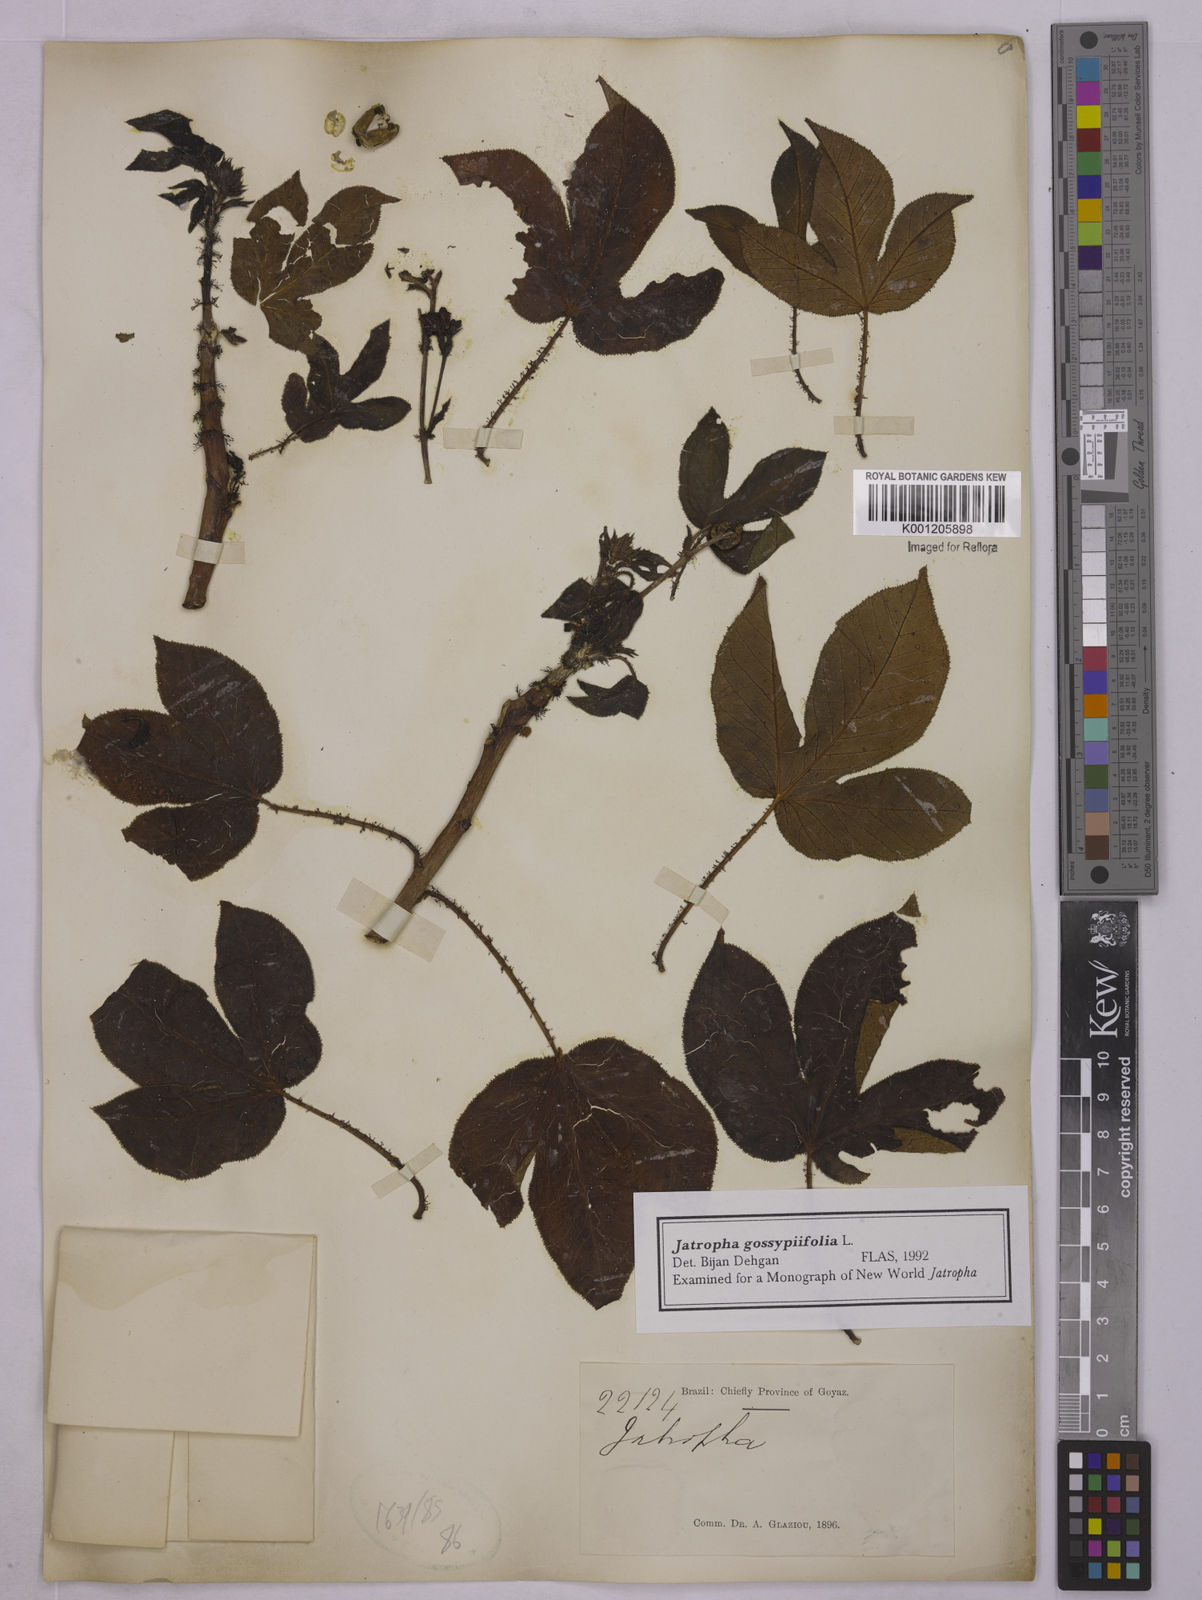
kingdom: Plantae
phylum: Tracheophyta
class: Magnoliopsida
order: Malpighiales
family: Euphorbiaceae
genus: Jatropha
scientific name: Jatropha gossypiifolia
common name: Bellyache bush
